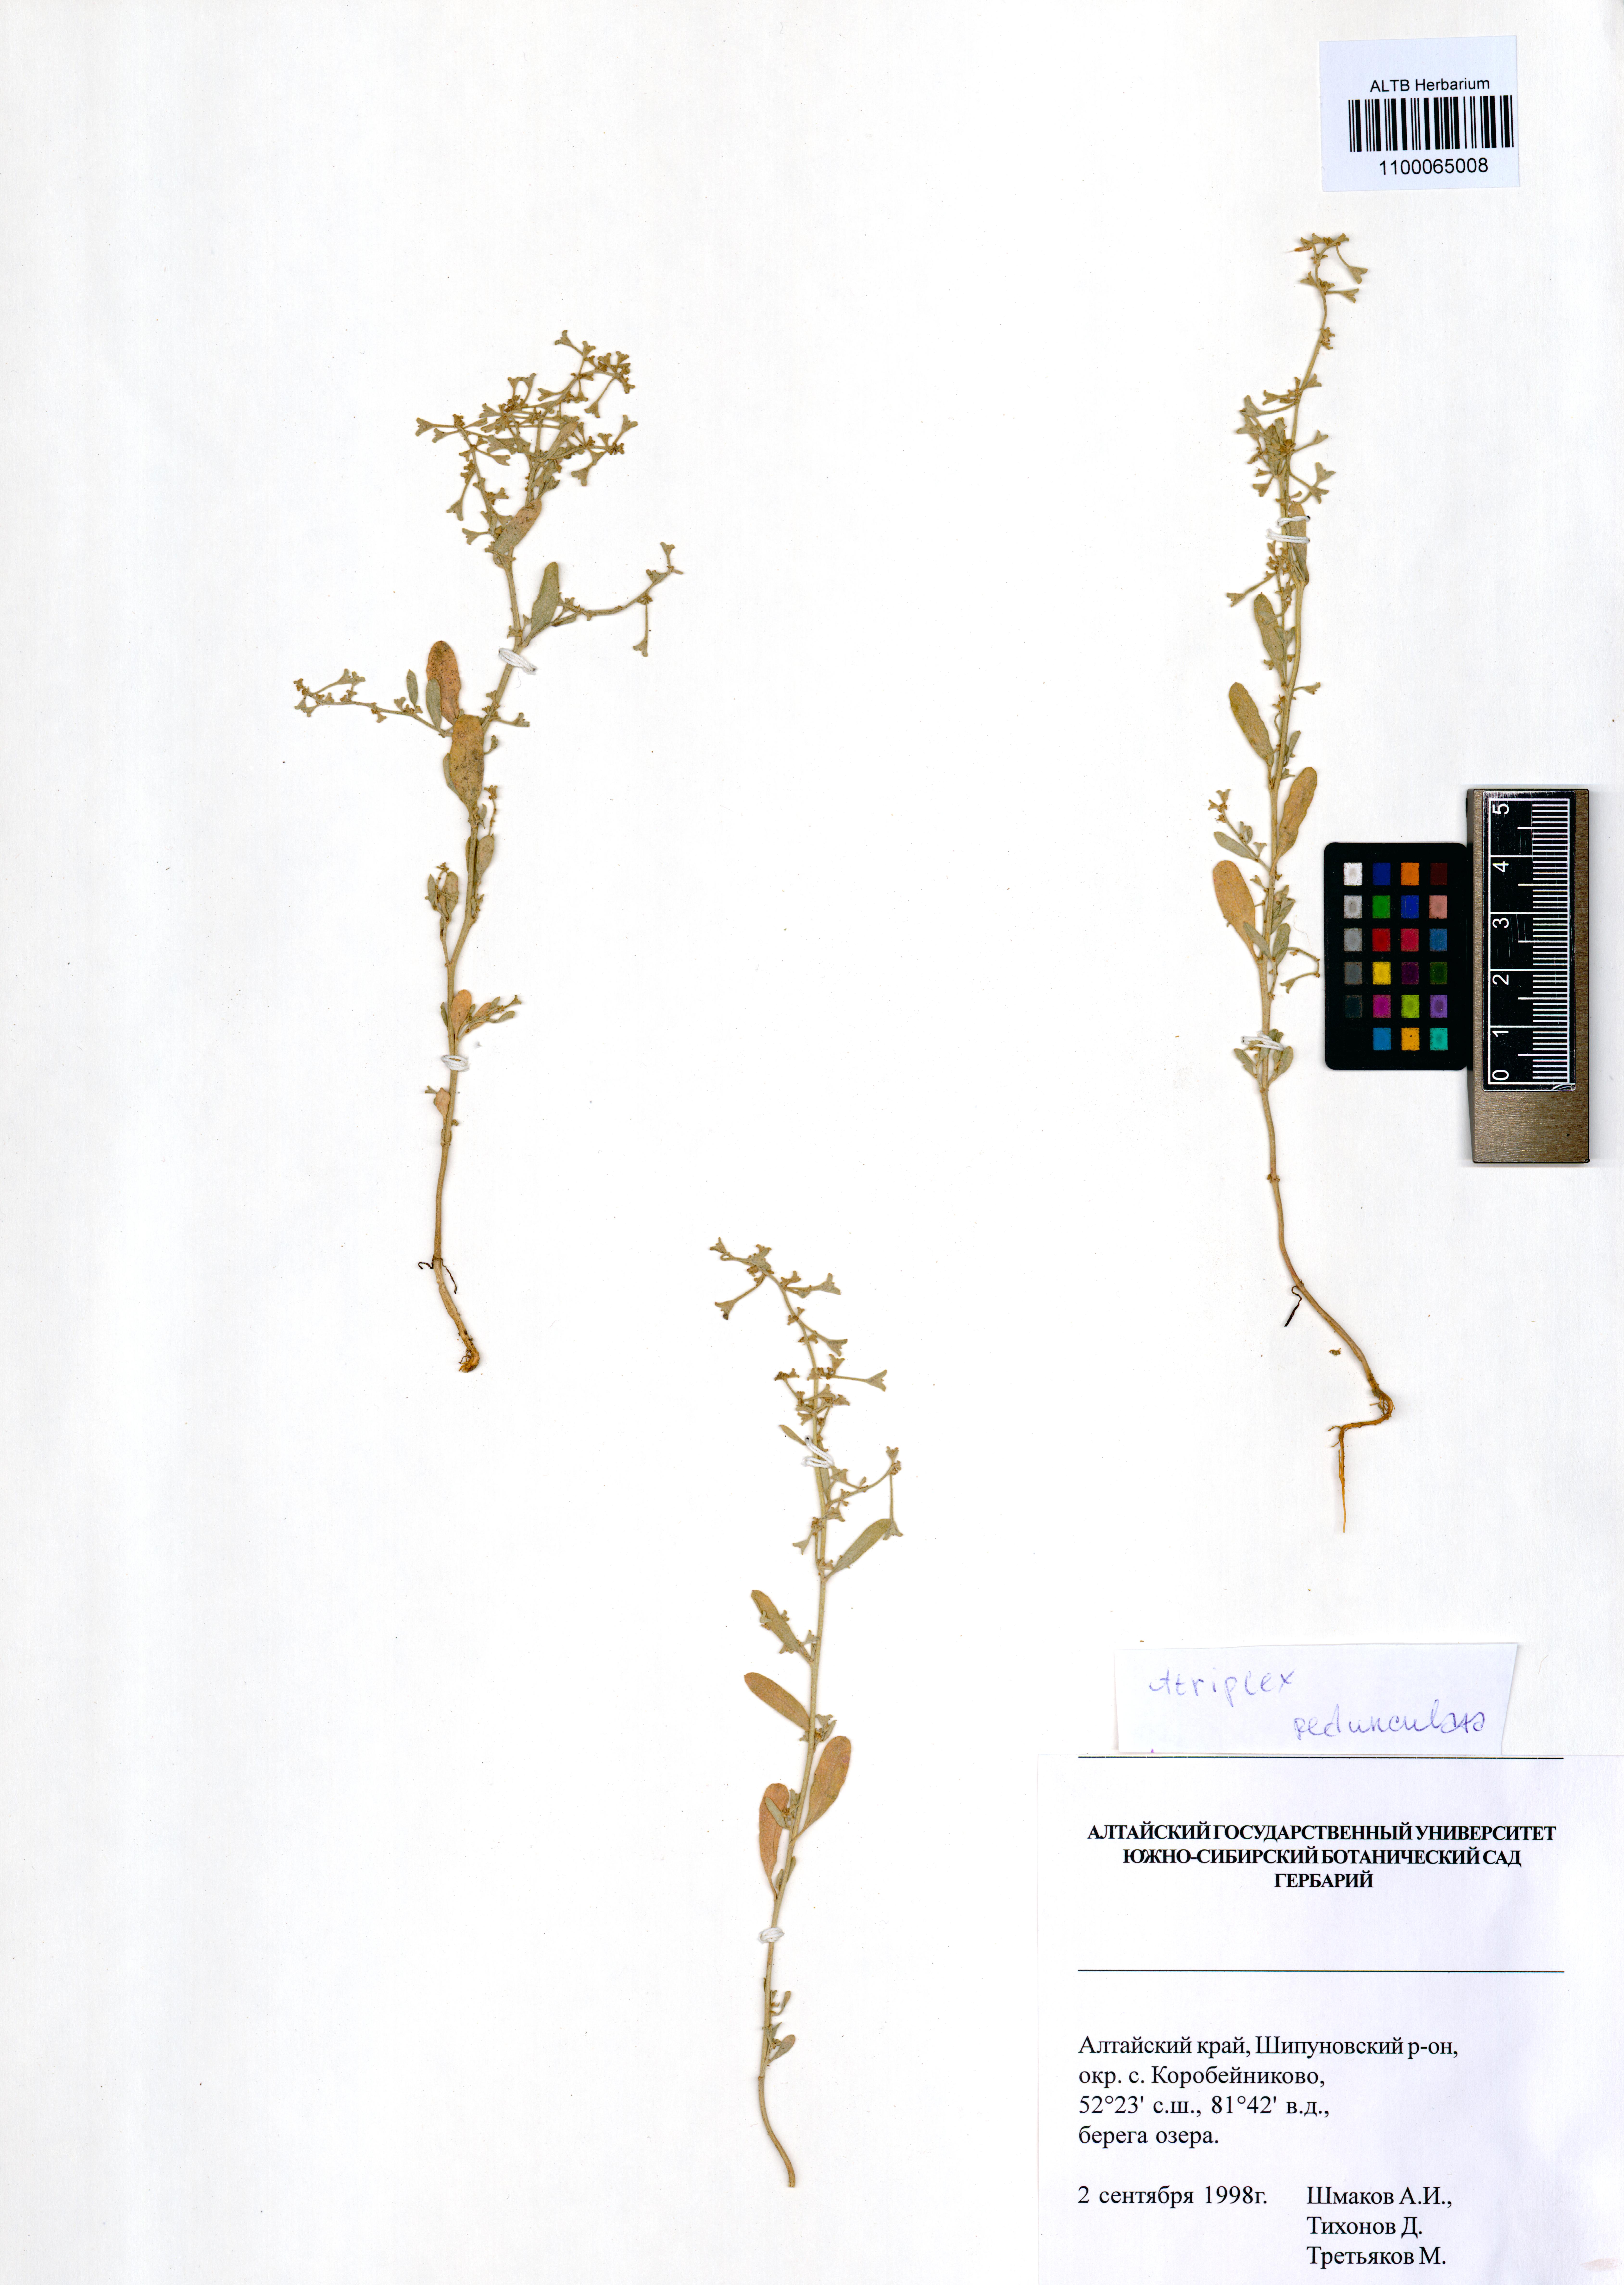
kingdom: Plantae
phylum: Tracheophyta
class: Magnoliopsida
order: Caryophyllales
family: Amaranthaceae
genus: Halimione
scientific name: Halimione pedunculata
